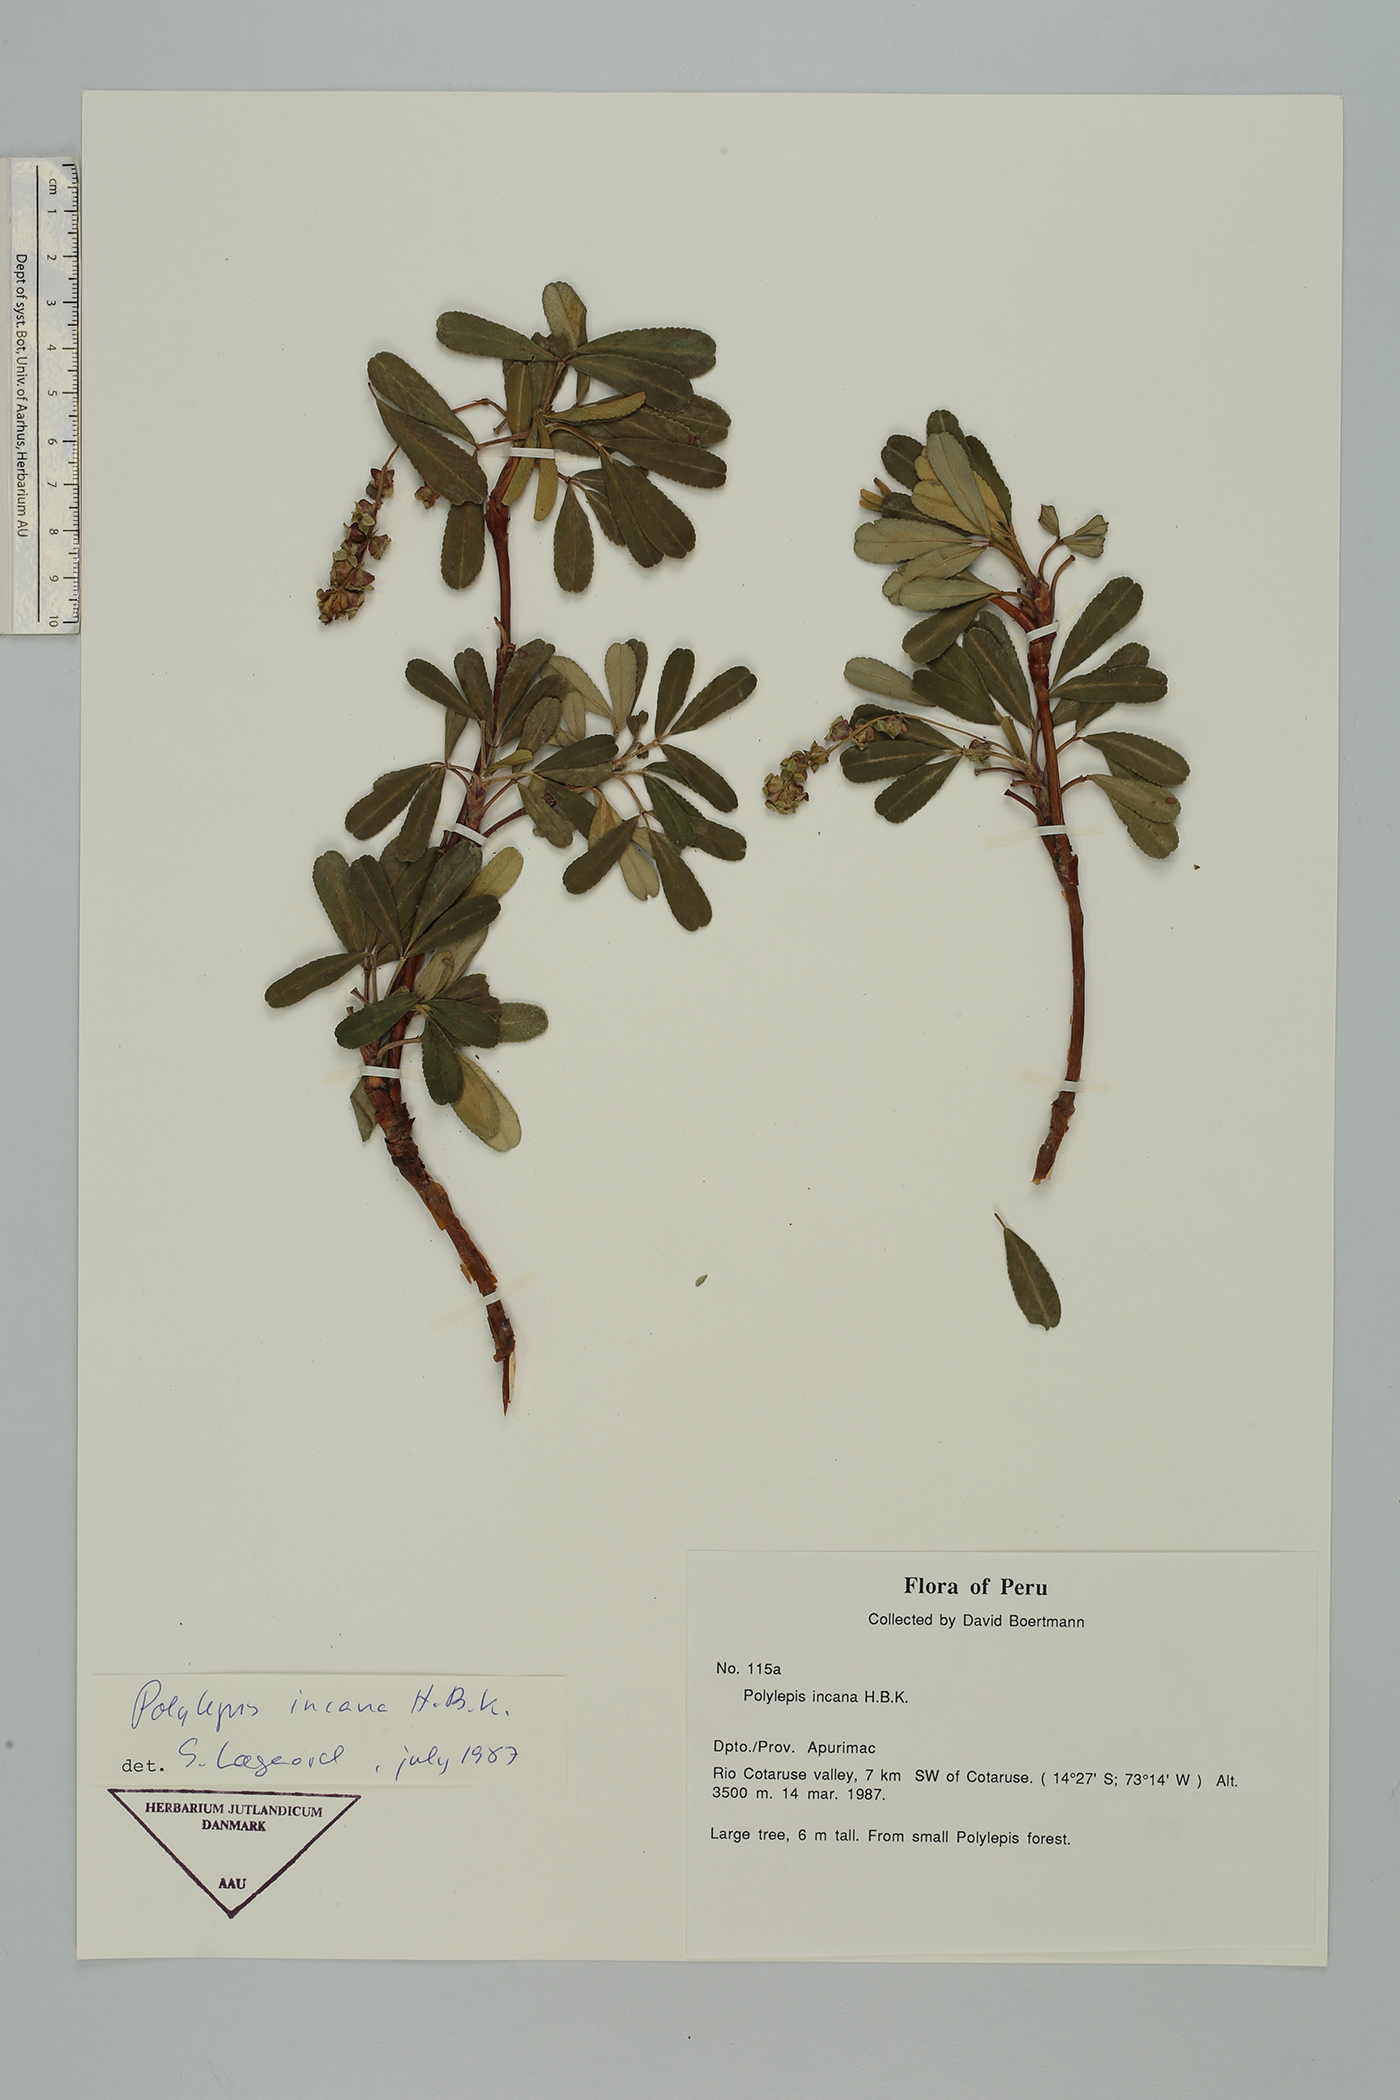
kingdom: Plantae
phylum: Tracheophyta
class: Magnoliopsida
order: Rosales
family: Rosaceae
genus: Polylepis
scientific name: Polylepis incana
